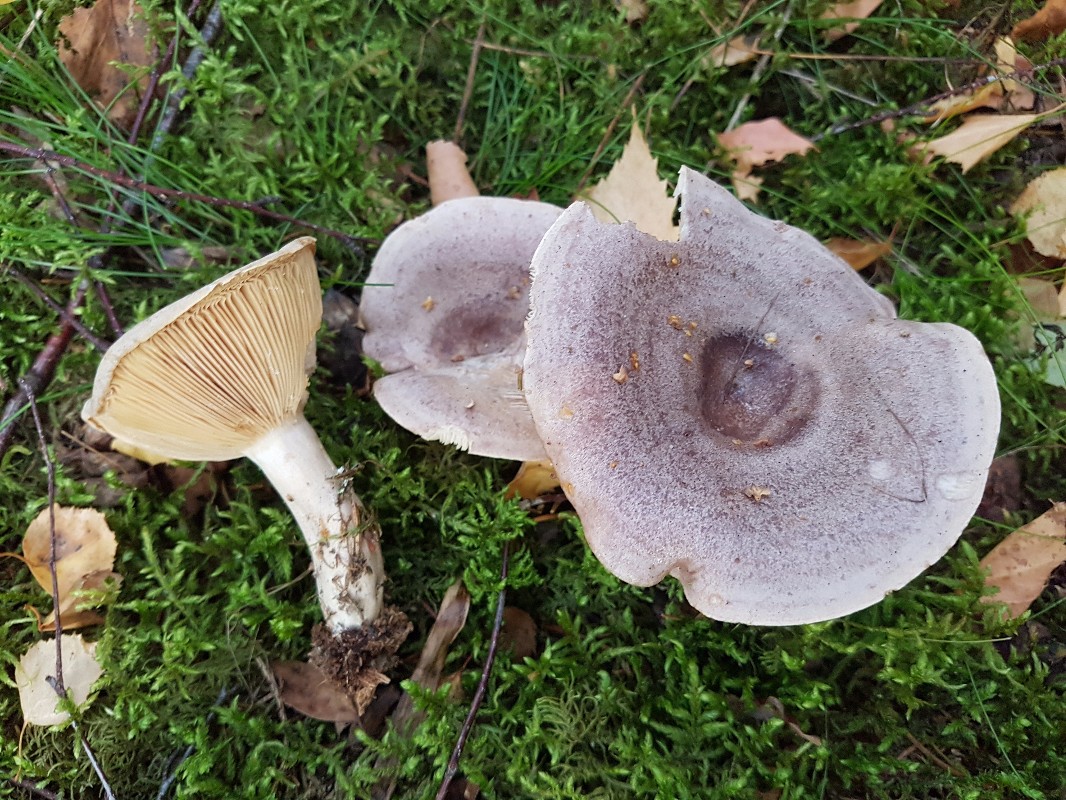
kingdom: Fungi
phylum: Basidiomycota
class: Agaricomycetes
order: Russulales
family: Russulaceae
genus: Lactarius
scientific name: Lactarius trivialis
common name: nordisk mælkehat
